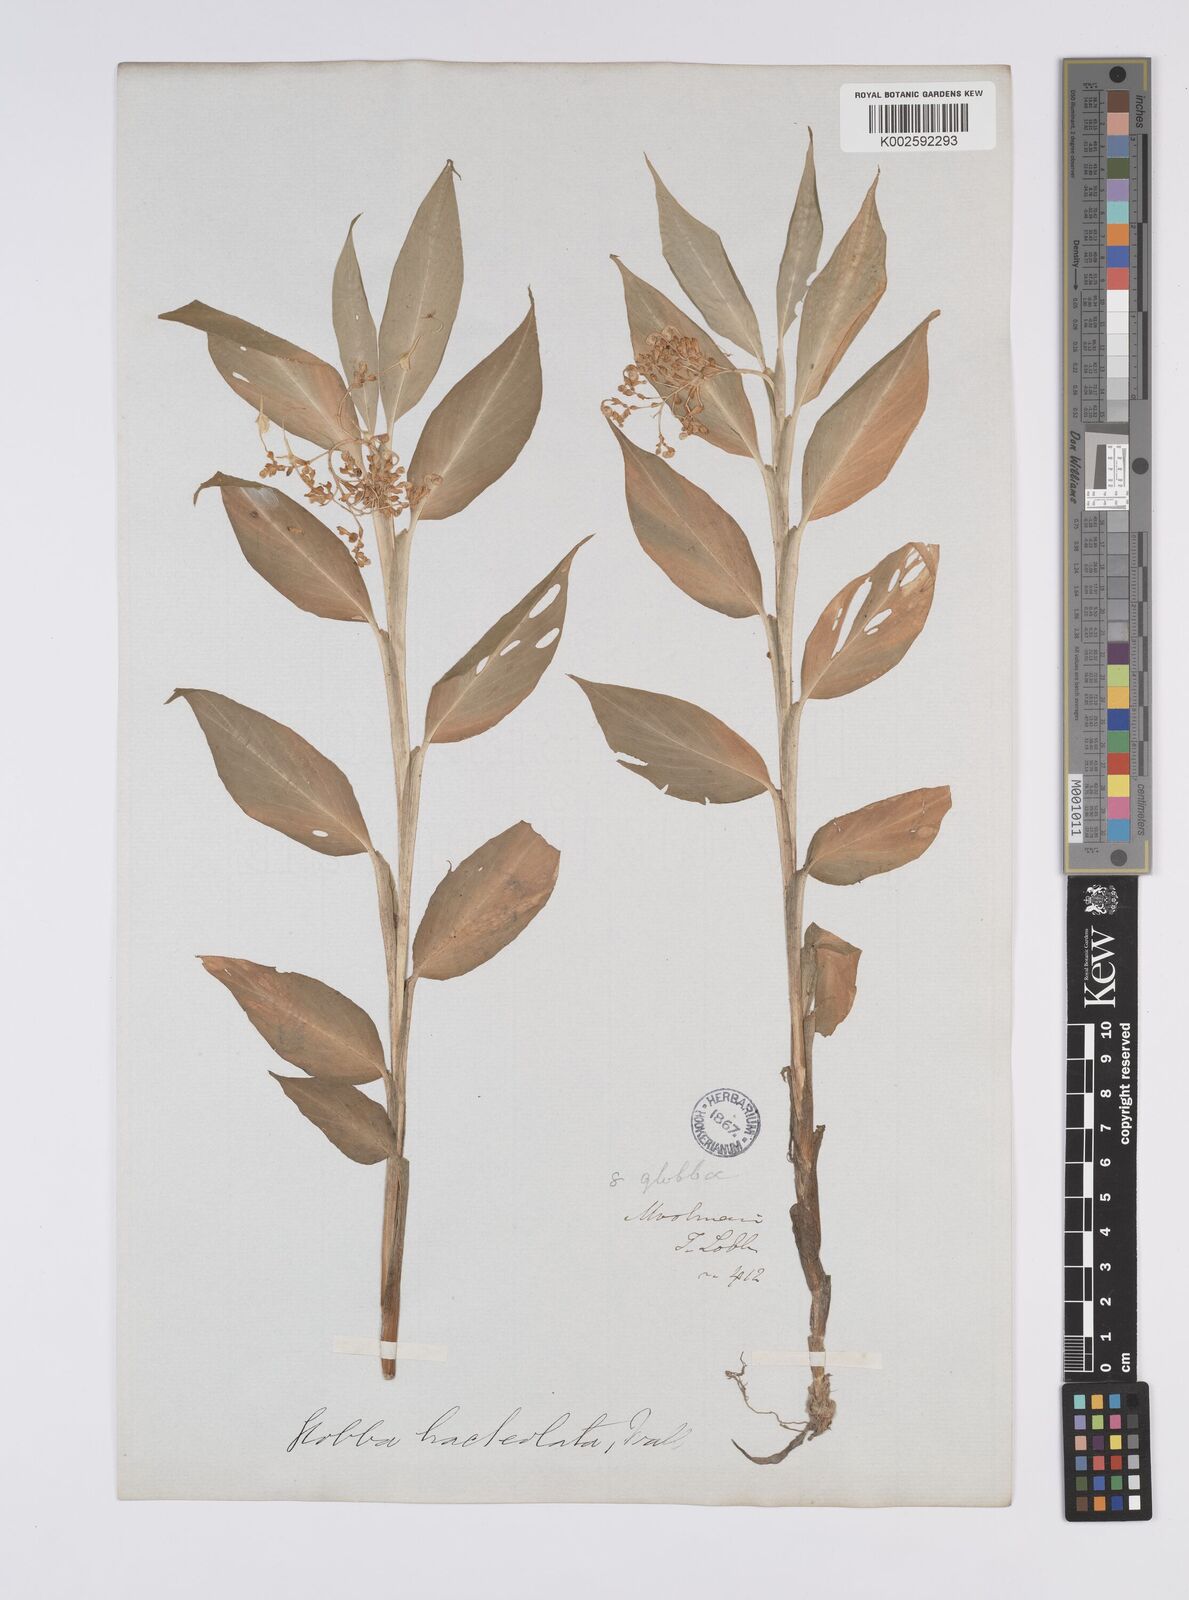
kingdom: Plantae
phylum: Tracheophyta
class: Liliopsida
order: Zingiberales
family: Zingiberaceae
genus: Globba
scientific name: Globba bracteolata
